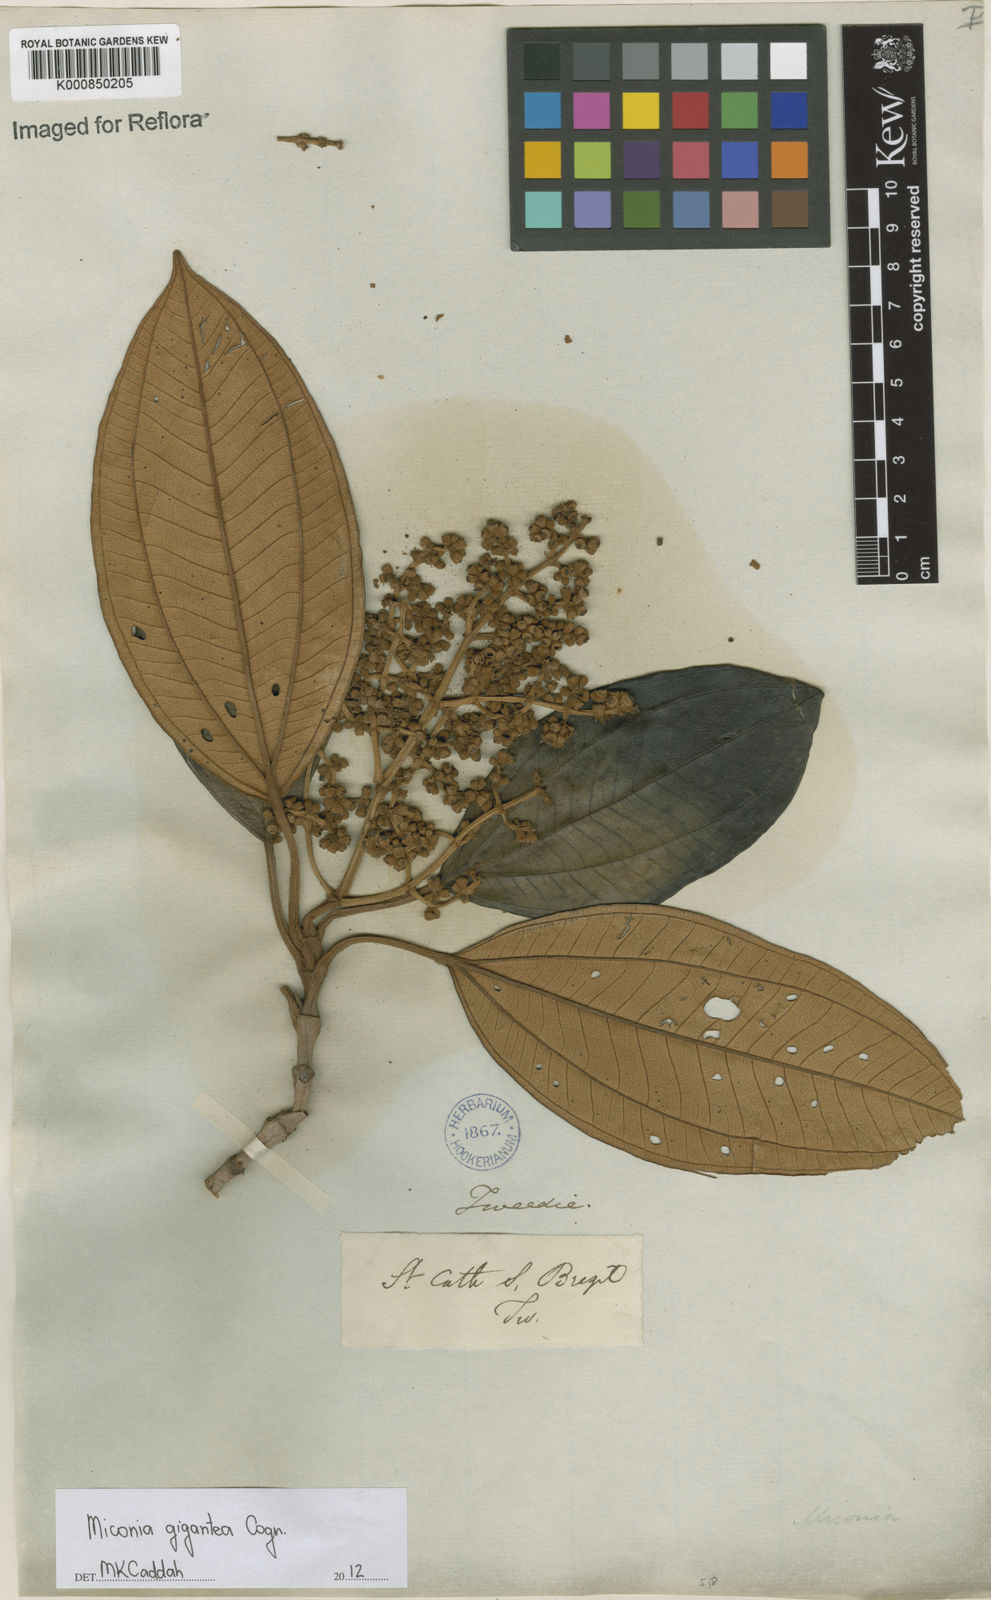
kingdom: Plantae
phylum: Tracheophyta
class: Magnoliopsida
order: Myrtales
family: Melastomataceae
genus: Miconia
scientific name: Miconia formosa
